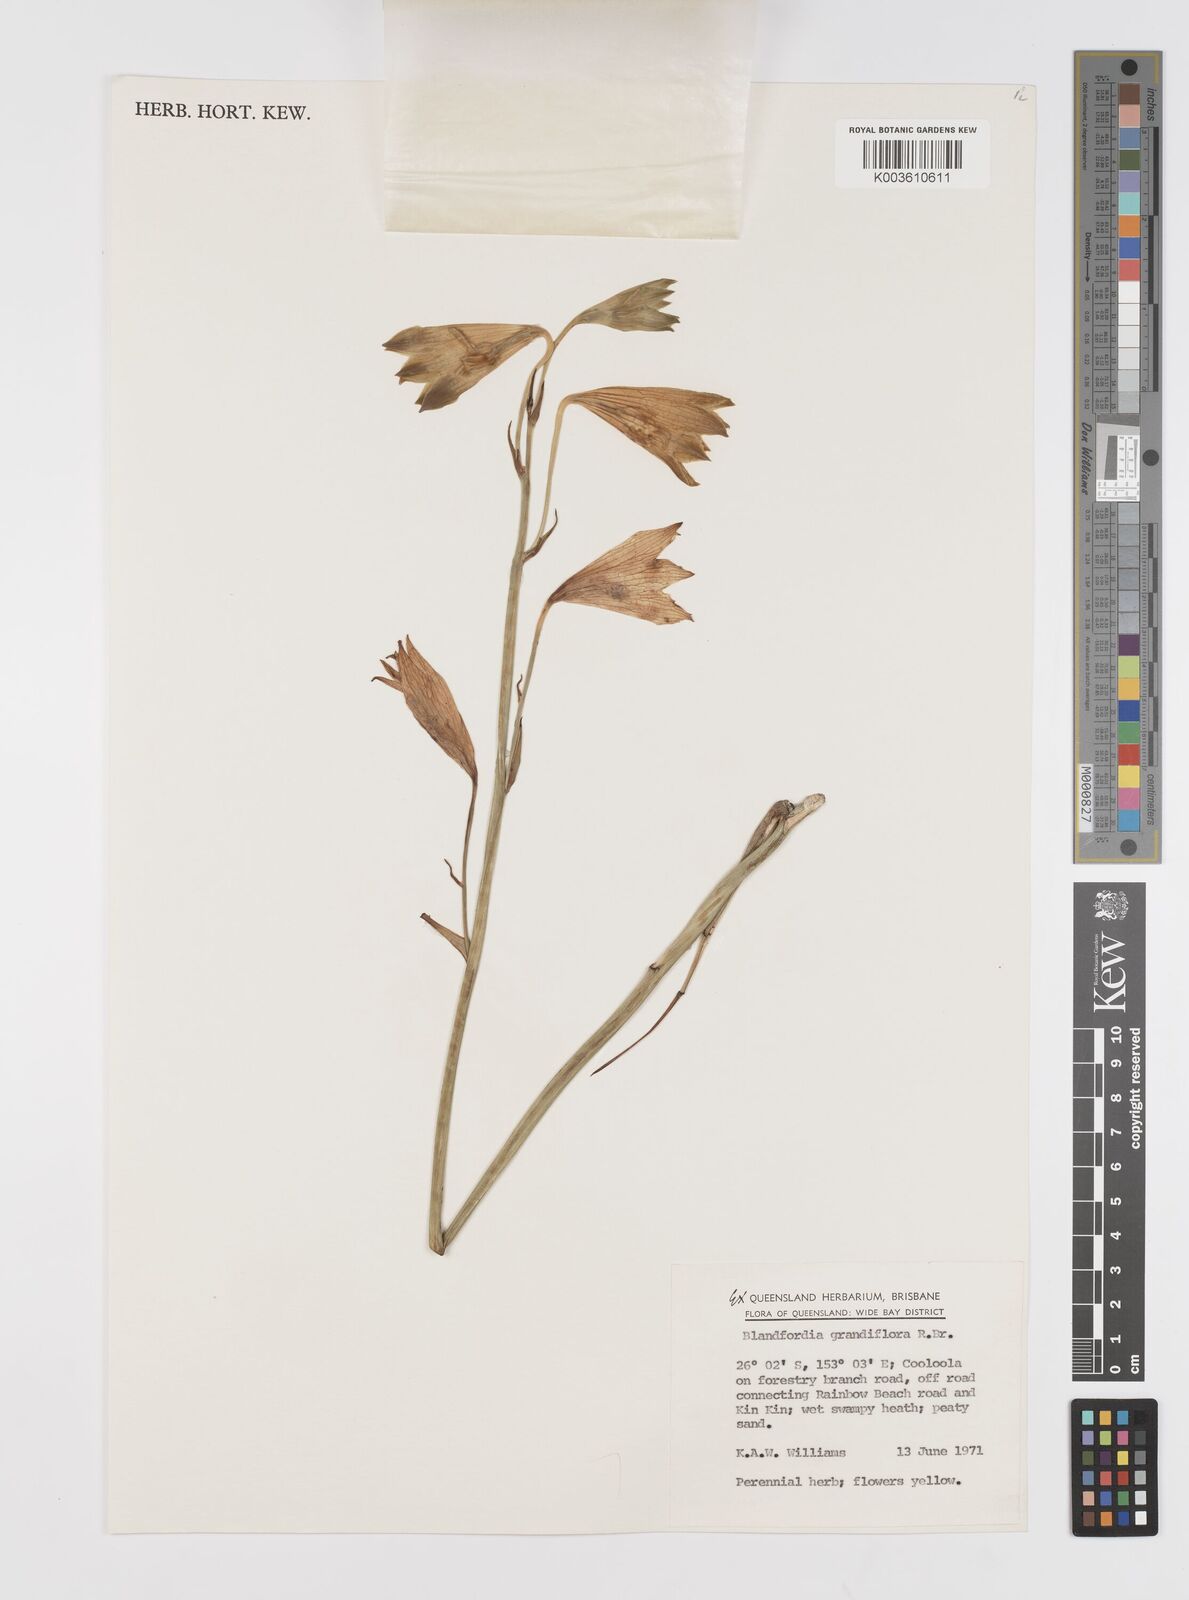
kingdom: Plantae
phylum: Tracheophyta
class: Liliopsida
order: Asparagales
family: Blandfordiaceae
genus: Blandfordia
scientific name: Blandfordia grandiflora
